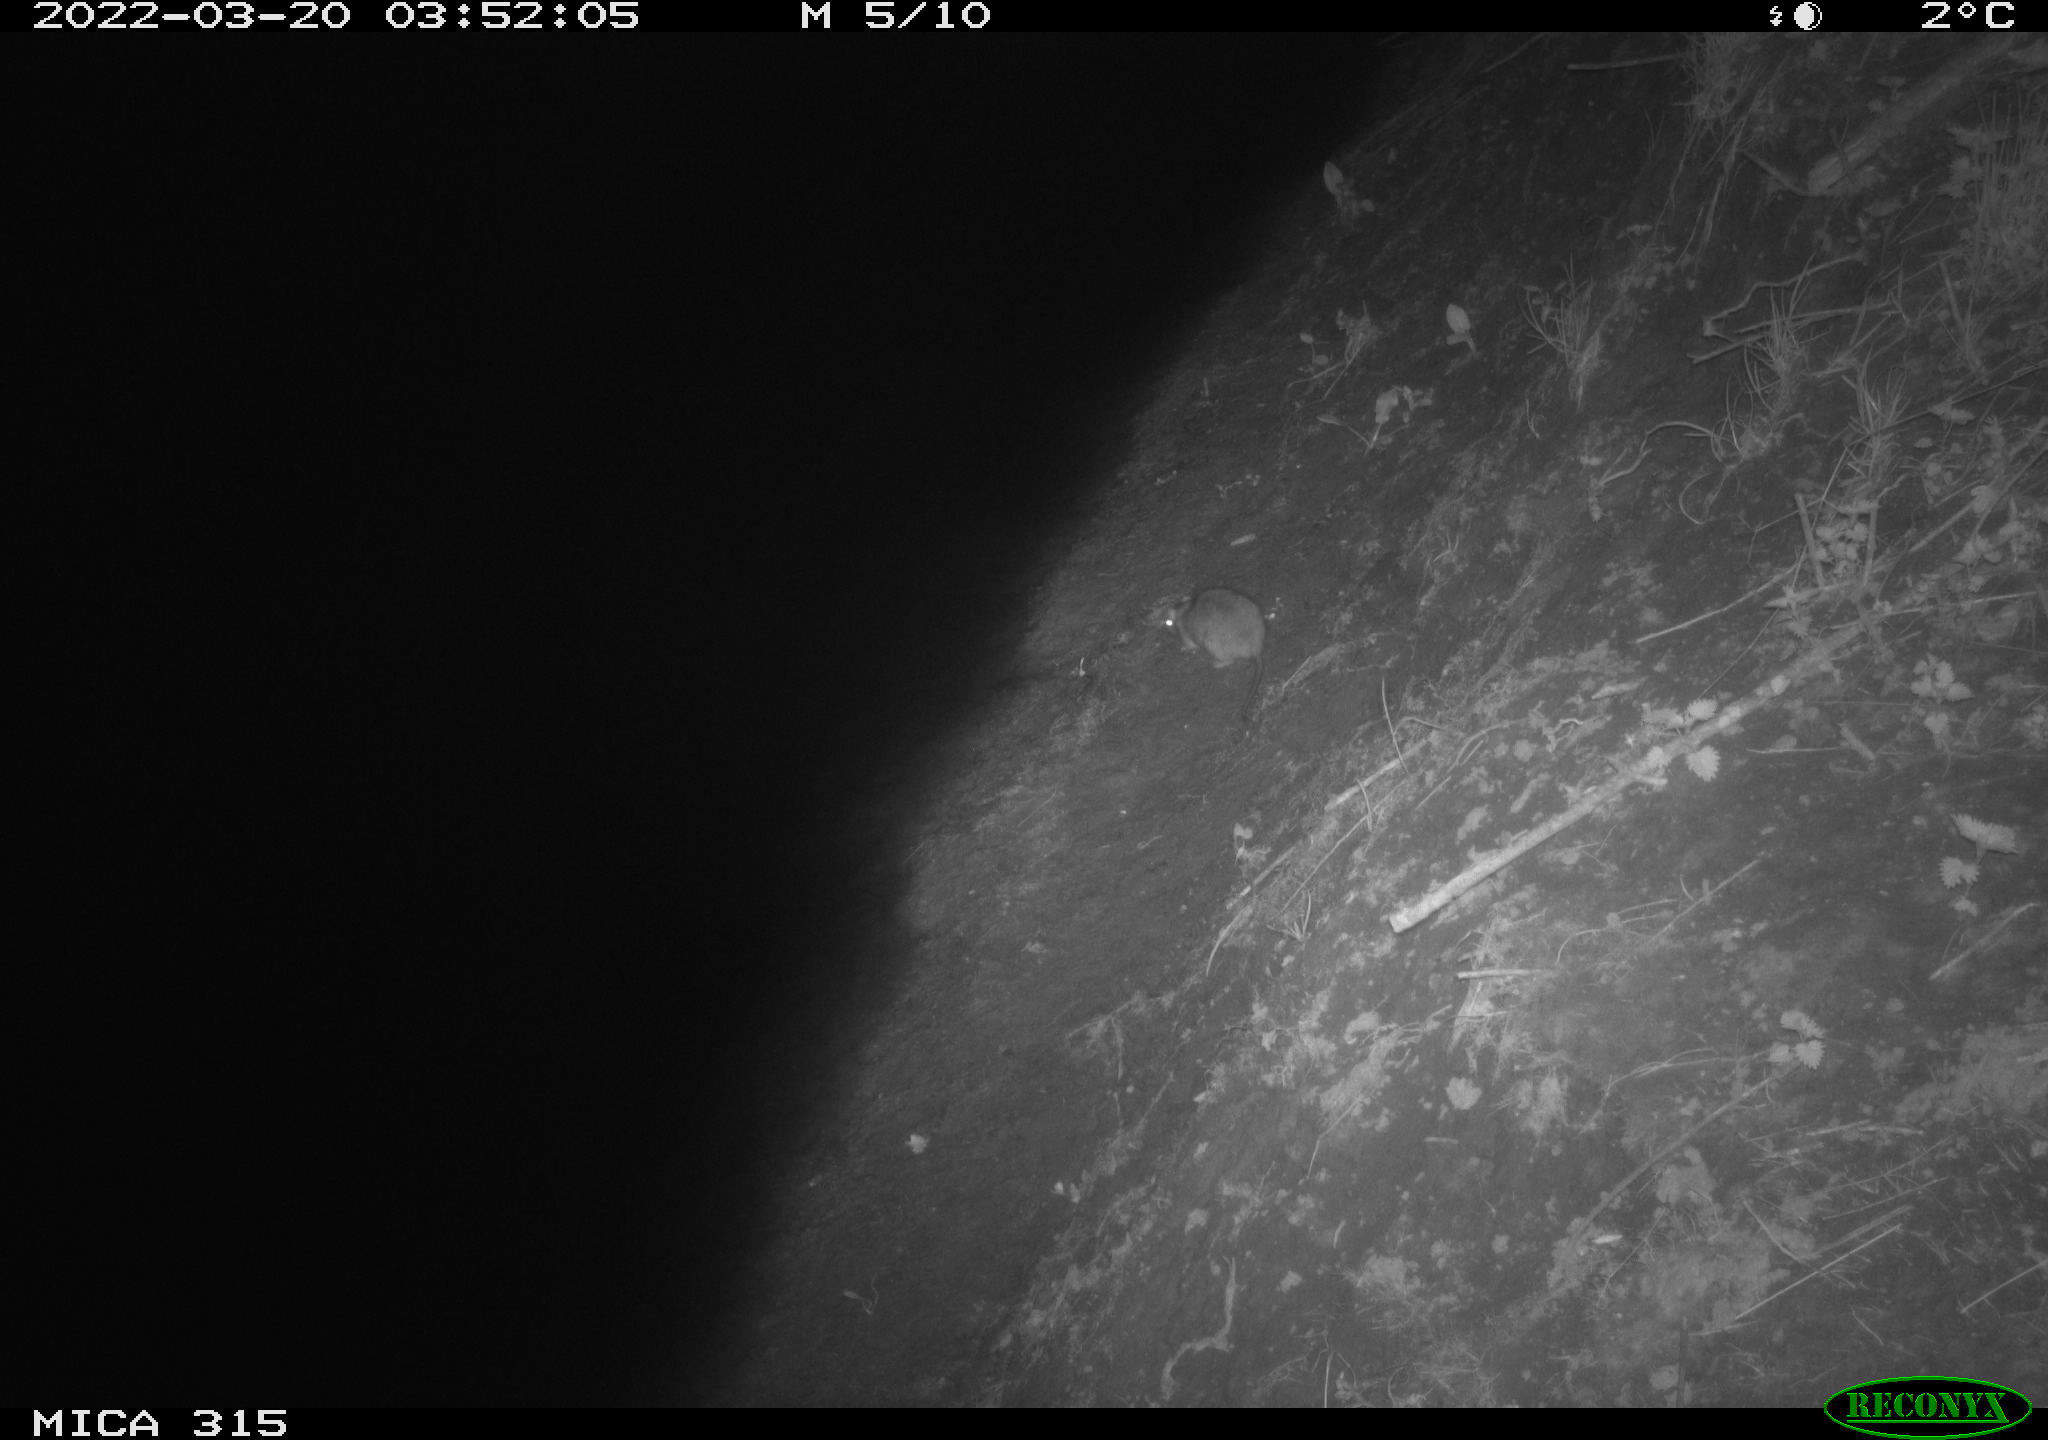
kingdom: Animalia
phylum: Chordata
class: Mammalia
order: Rodentia
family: Muridae
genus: Rattus
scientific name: Rattus norvegicus
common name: Brown rat
